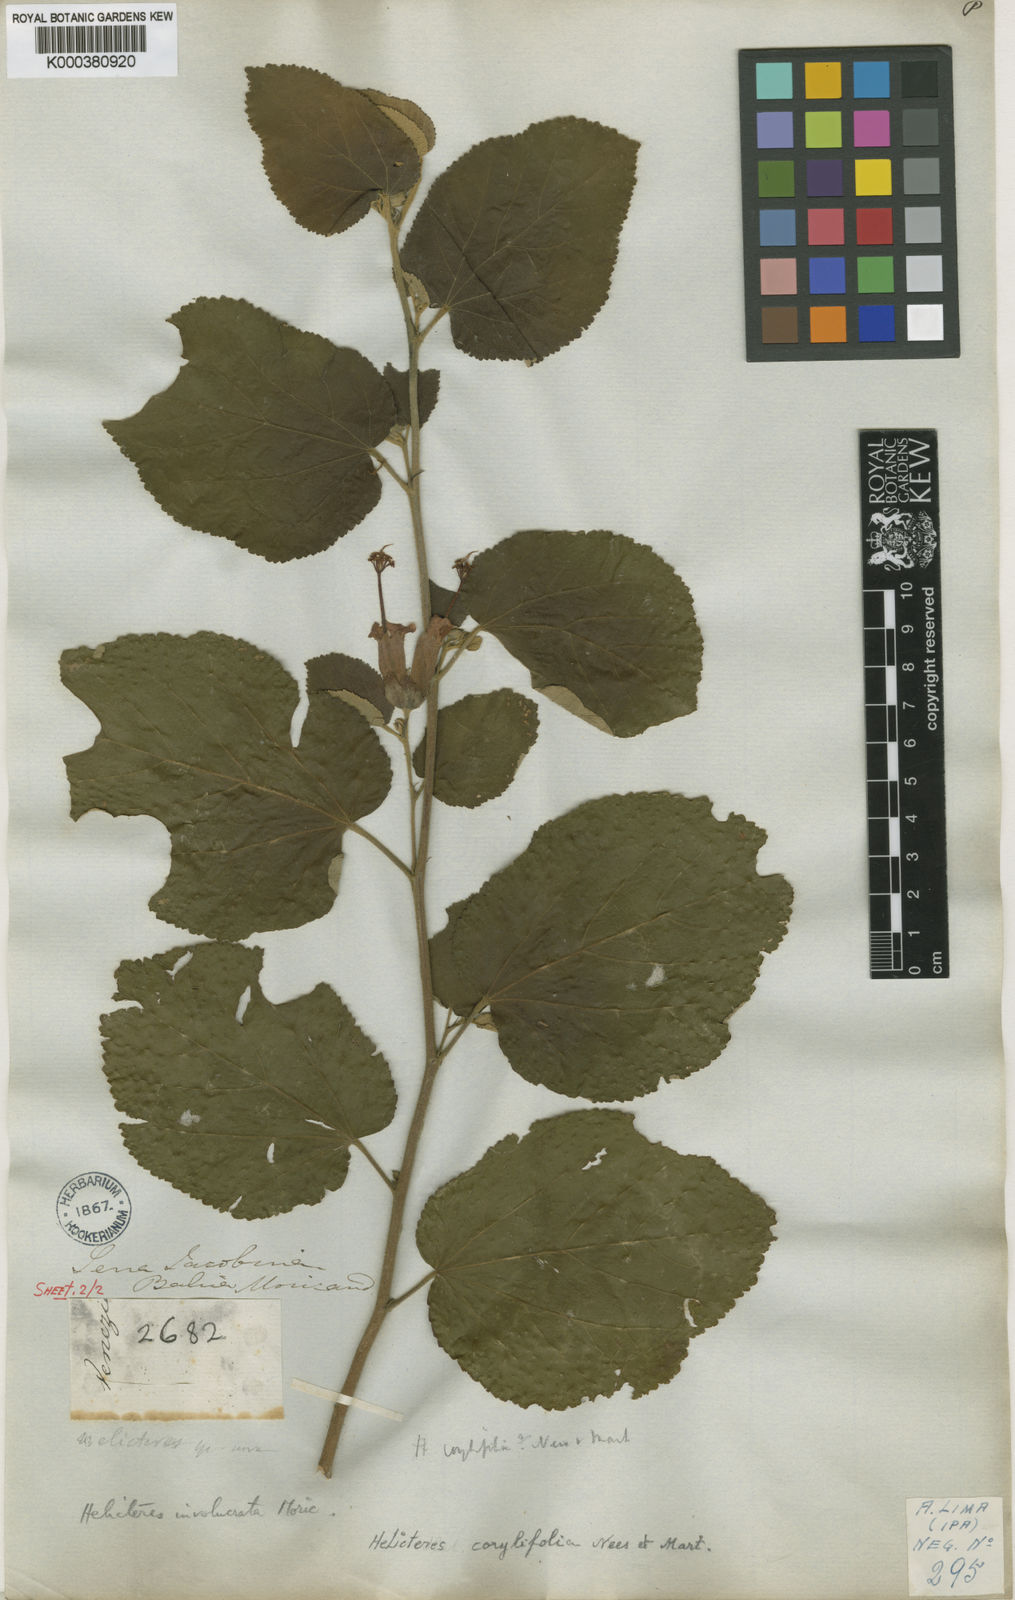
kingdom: Plantae
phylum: Tracheophyta
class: Magnoliopsida
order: Malvales
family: Malvaceae
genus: Helicteres
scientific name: Helicteres corylifolia
